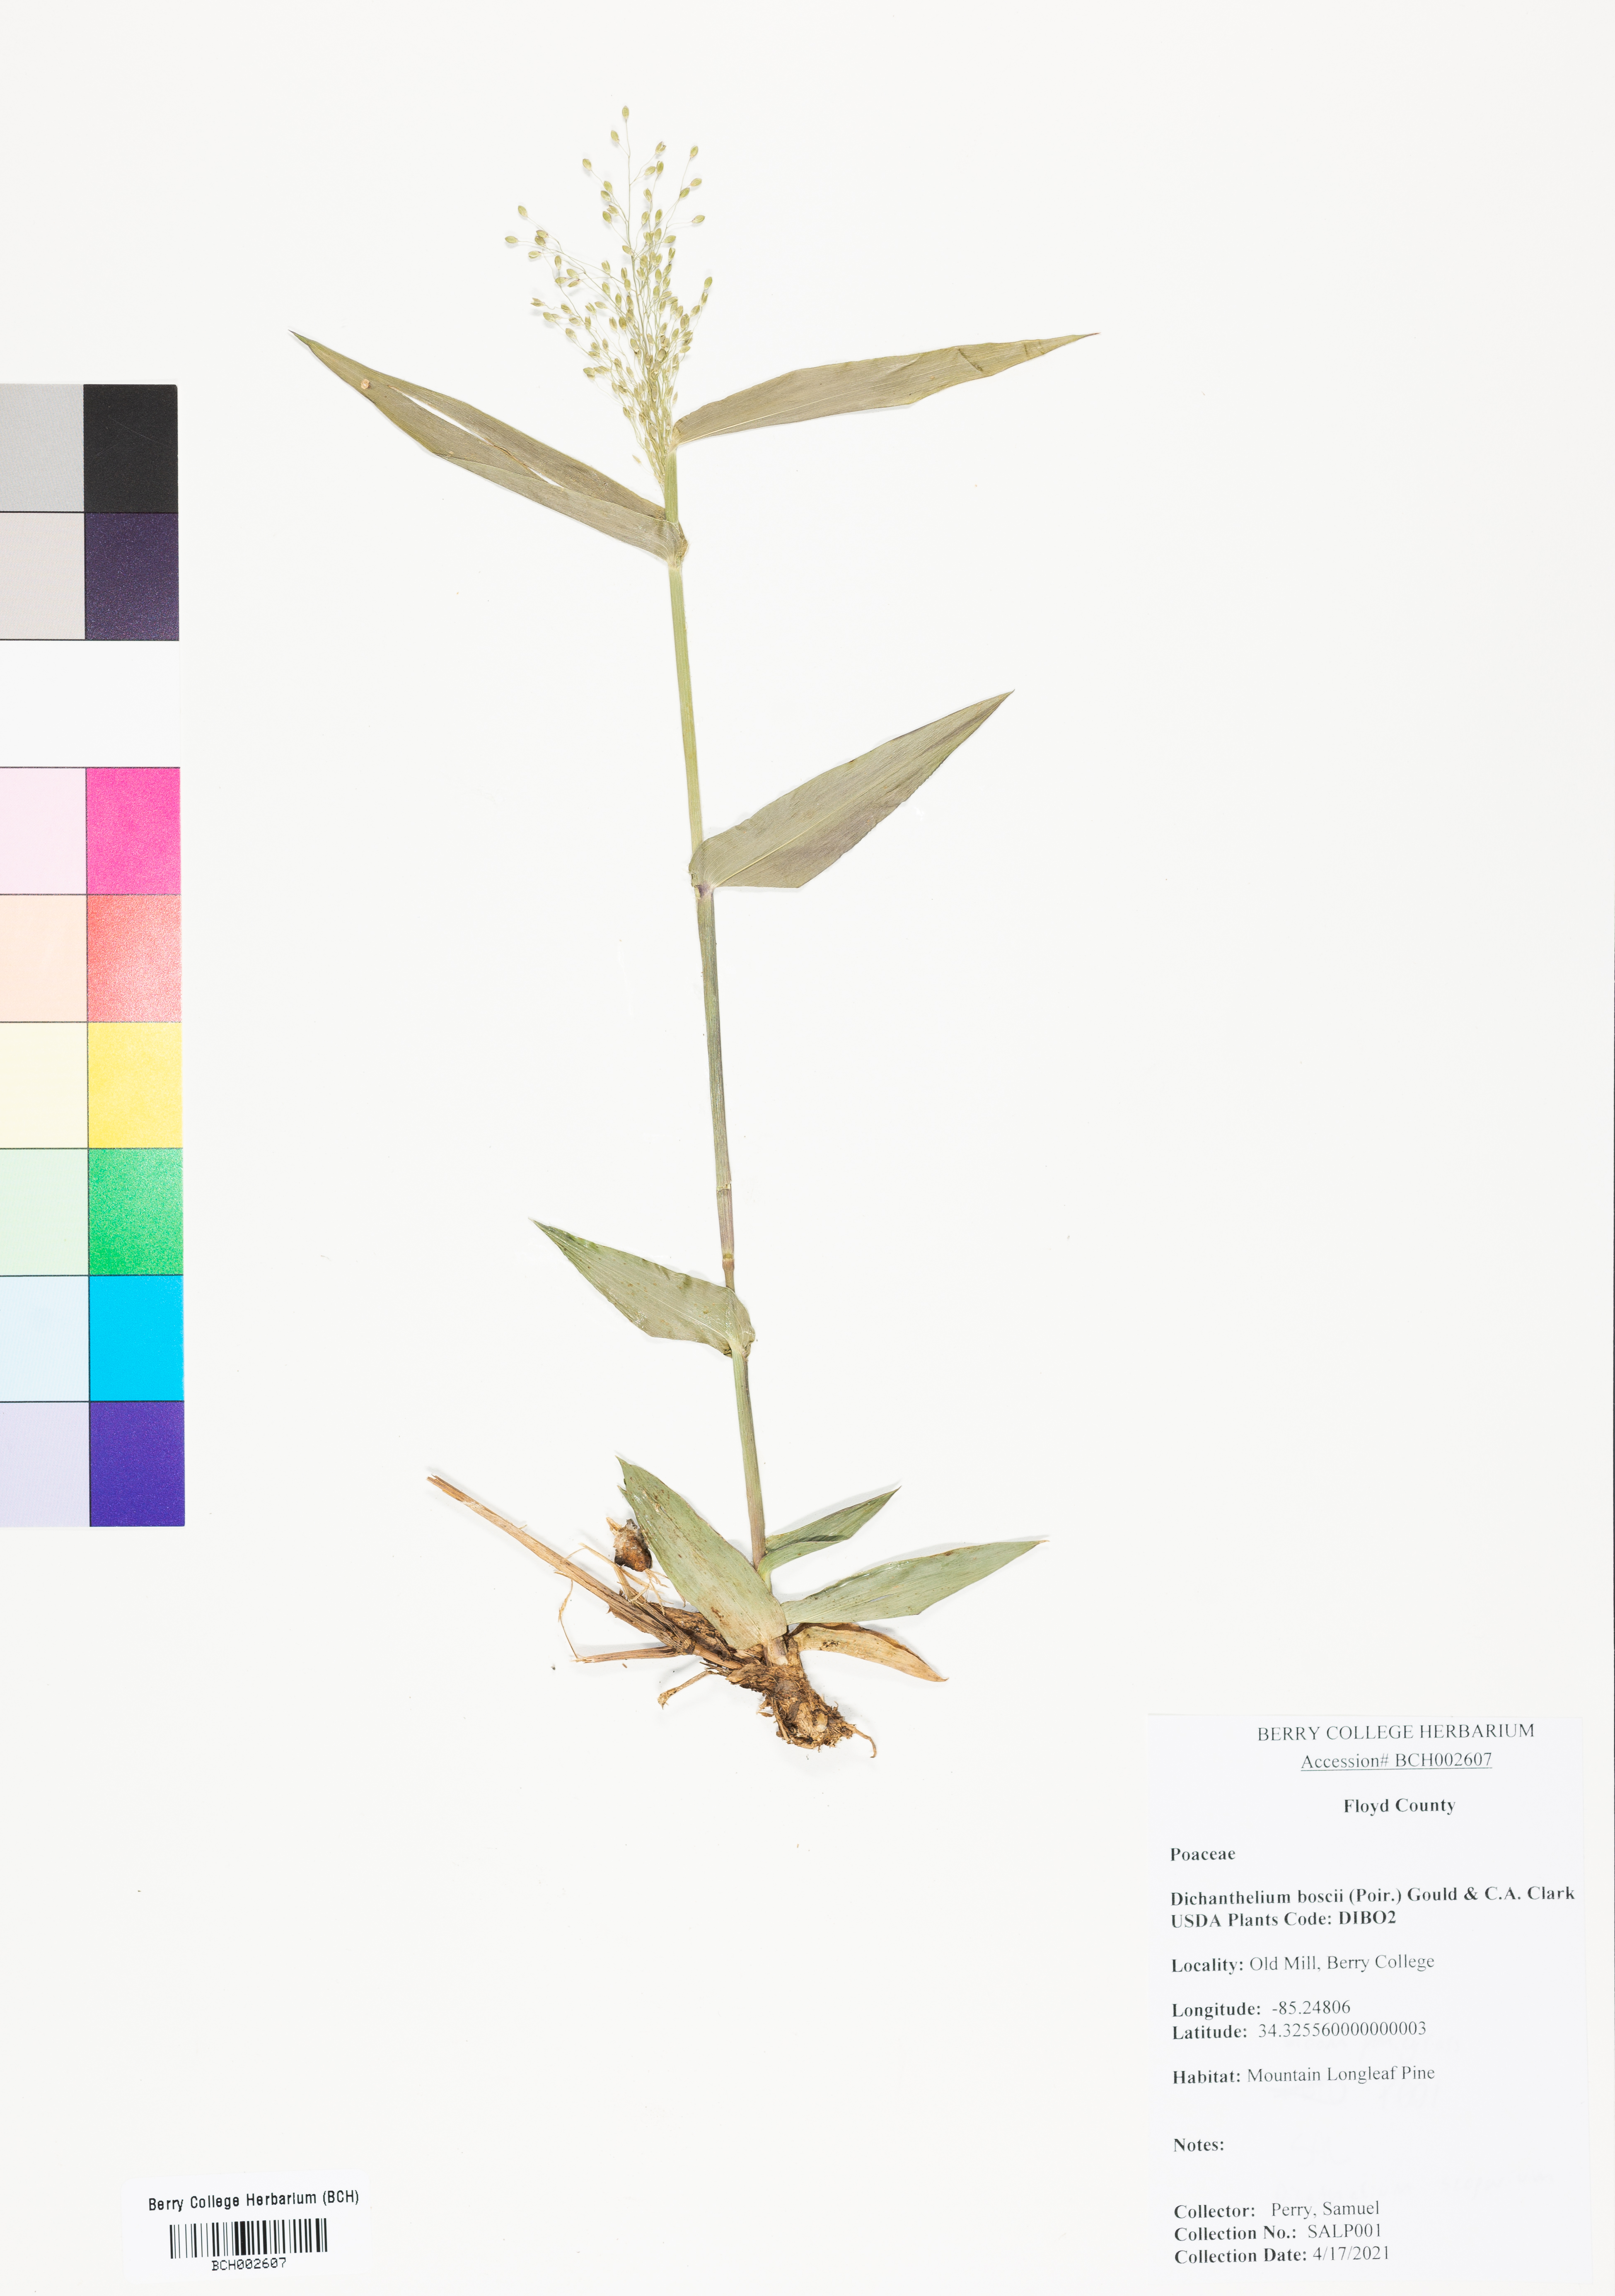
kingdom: Plantae
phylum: Tracheophyta
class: Liliopsida
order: Poales
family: Poaceae
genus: Dichanthelium
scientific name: Dichanthelium boscii
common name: Bosc's panic grass
